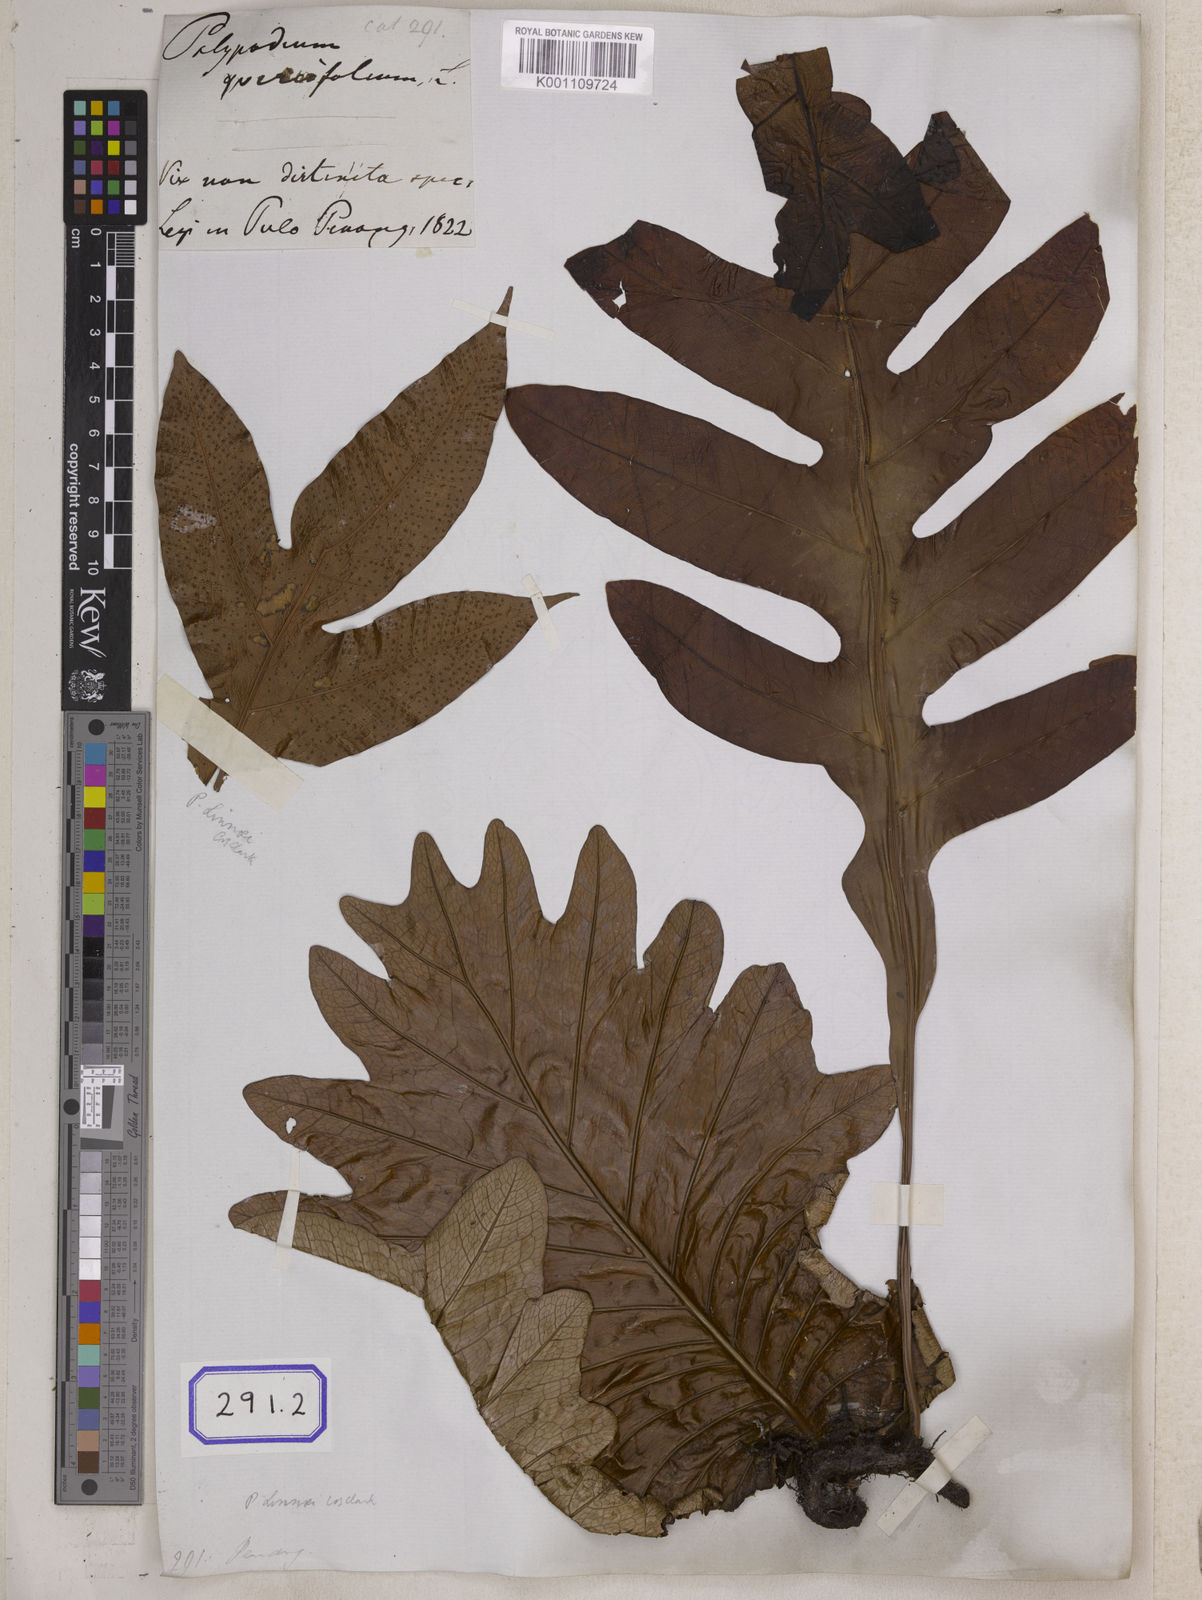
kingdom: Plantae
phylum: Tracheophyta
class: Polypodiopsida
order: Polypodiales
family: Polypodiaceae
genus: Drynaria
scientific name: Drynaria quercifolia
